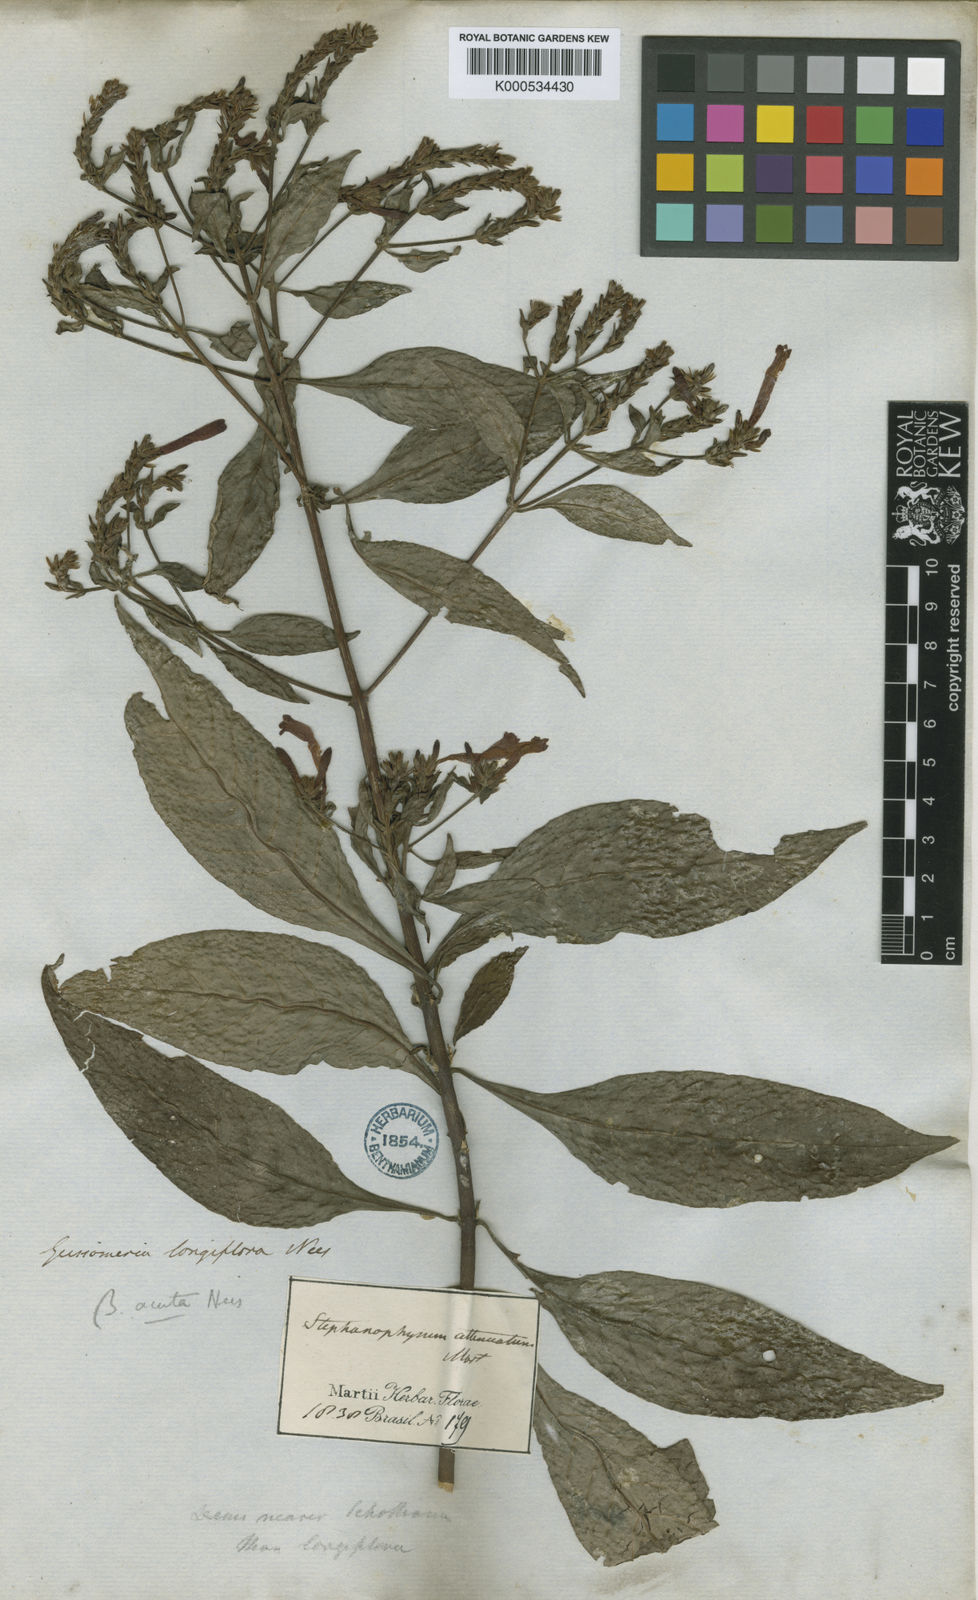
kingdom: Plantae
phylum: Tracheophyta
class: Magnoliopsida
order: Lamiales
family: Acanthaceae
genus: Aphelandra
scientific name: Aphelandra longiflora
